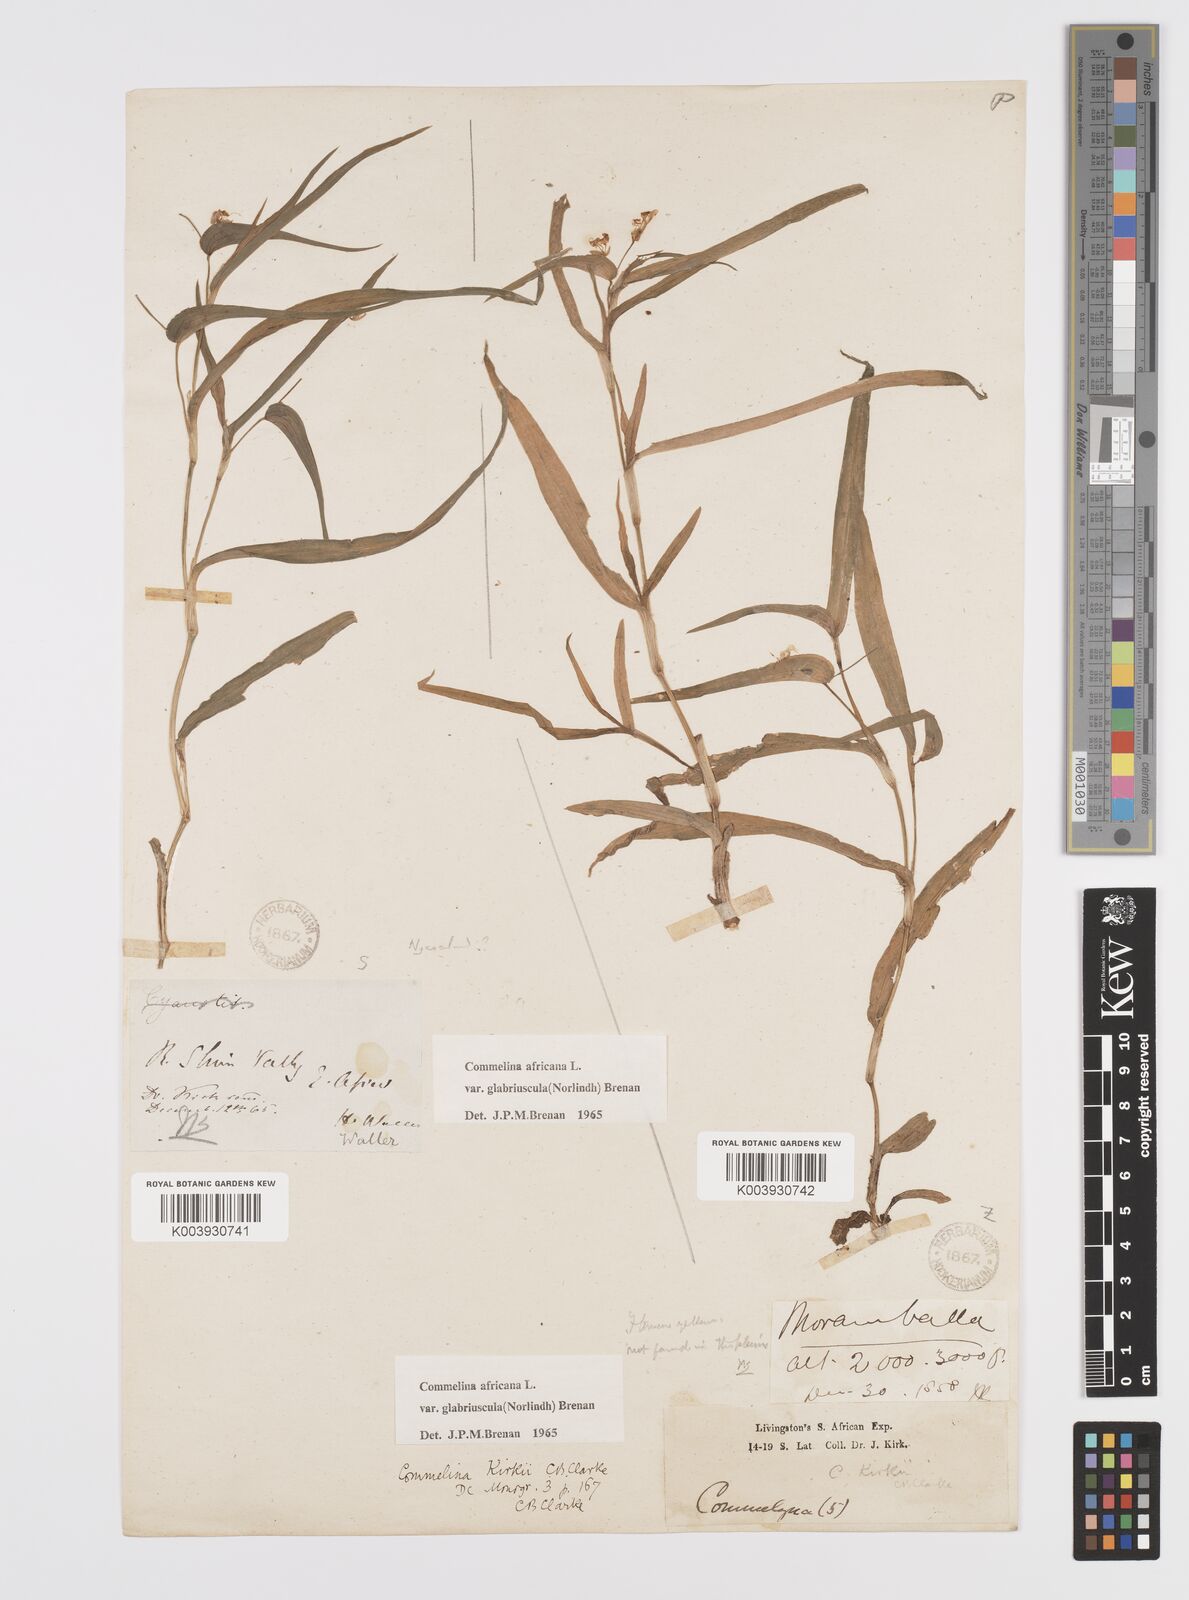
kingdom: Plantae
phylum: Tracheophyta
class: Liliopsida
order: Commelinales
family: Commelinaceae
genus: Commelina
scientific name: Commelina africana
